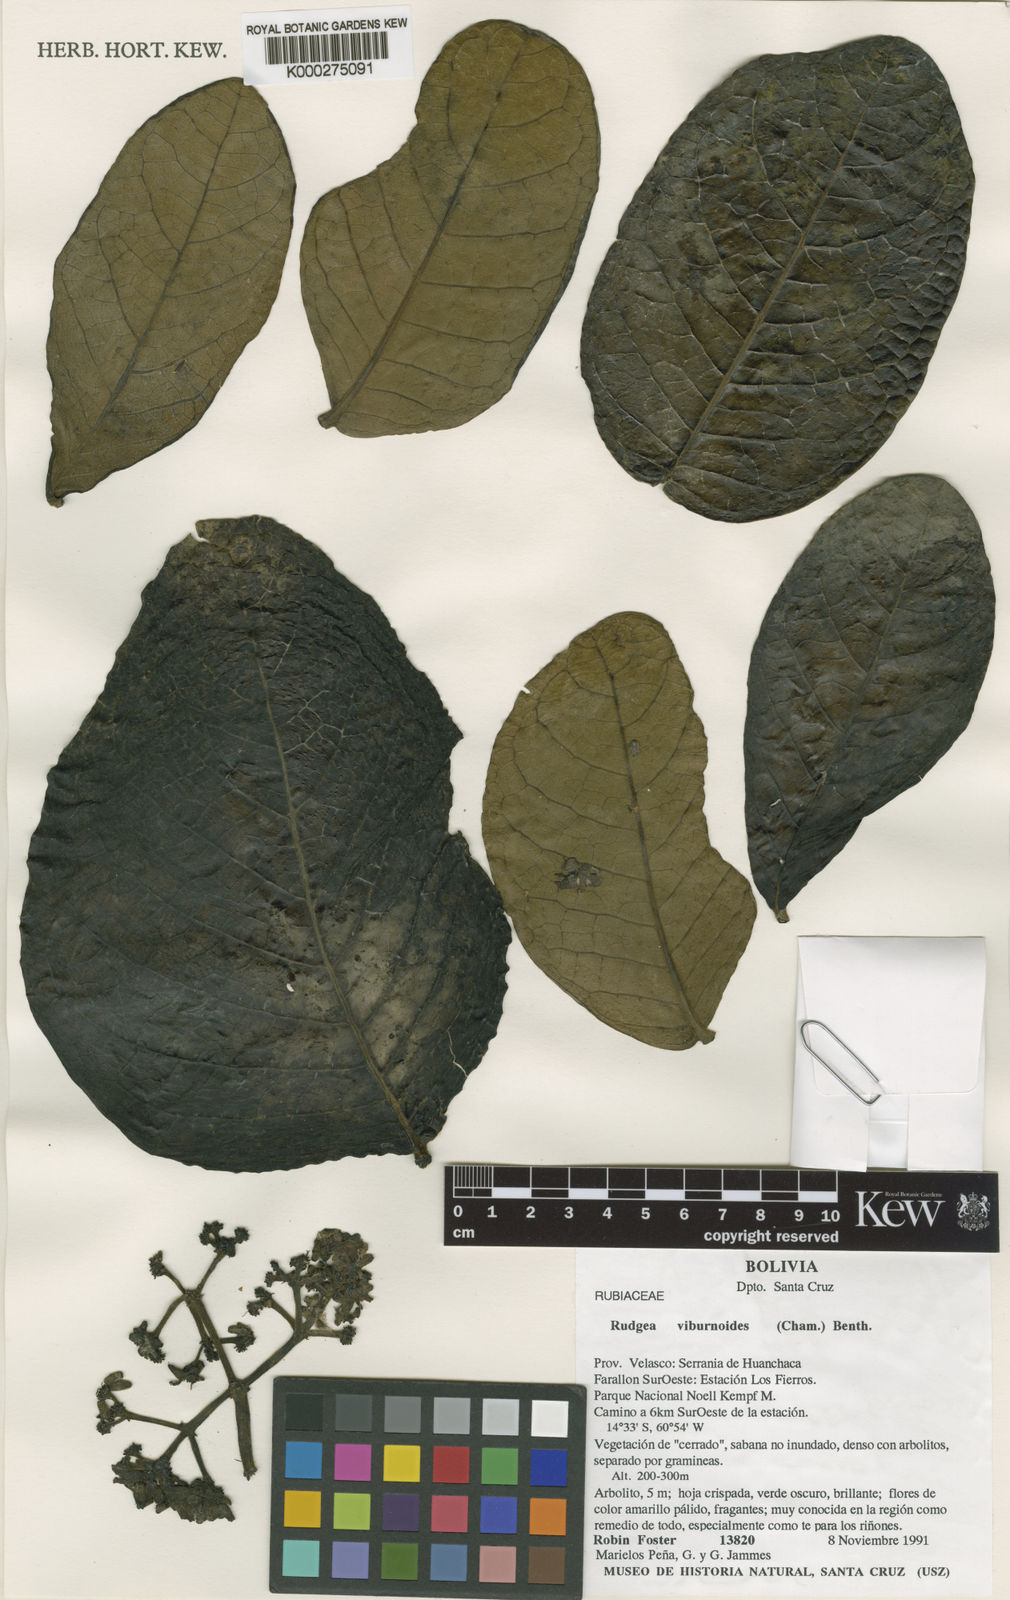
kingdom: Plantae
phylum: Tracheophyta
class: Magnoliopsida
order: Gentianales
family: Rubiaceae
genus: Rudgea
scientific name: Rudgea viburnoides
